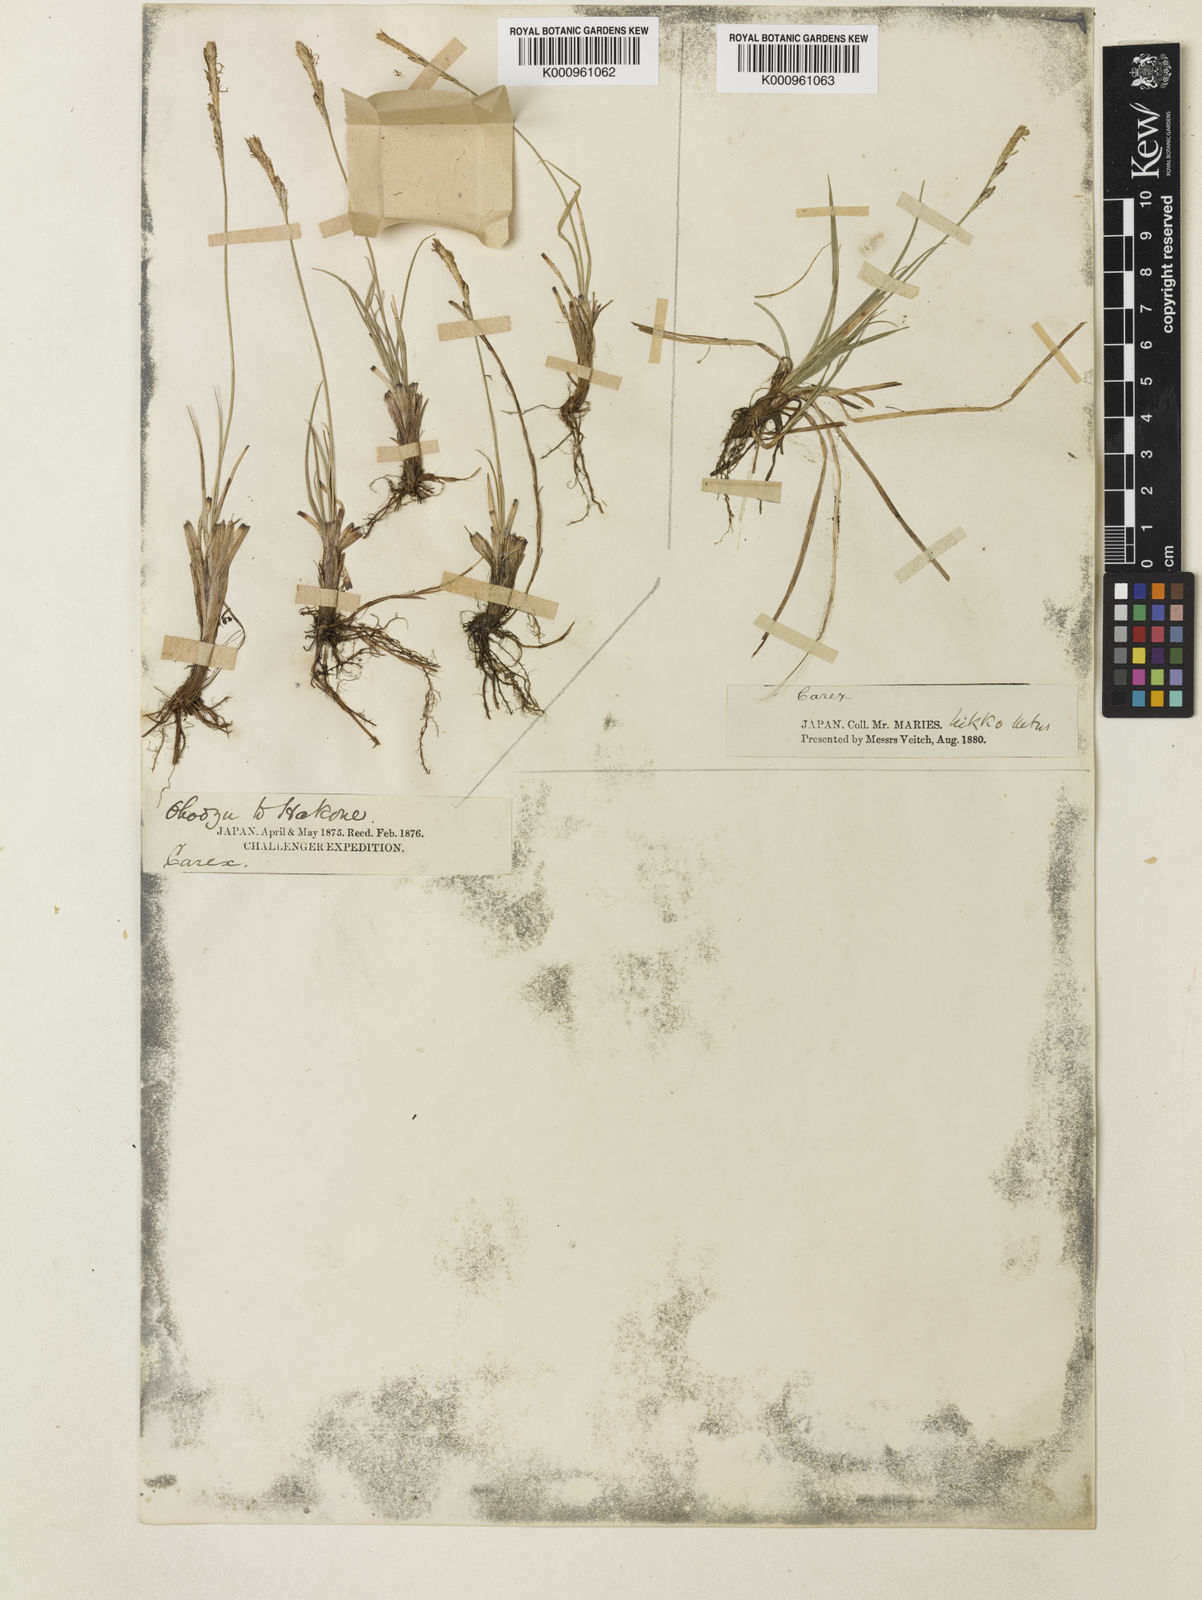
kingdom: Plantae
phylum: Tracheophyta
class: Liliopsida
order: Poales
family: Cyperaceae
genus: Carex
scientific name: Carex pisiformis
